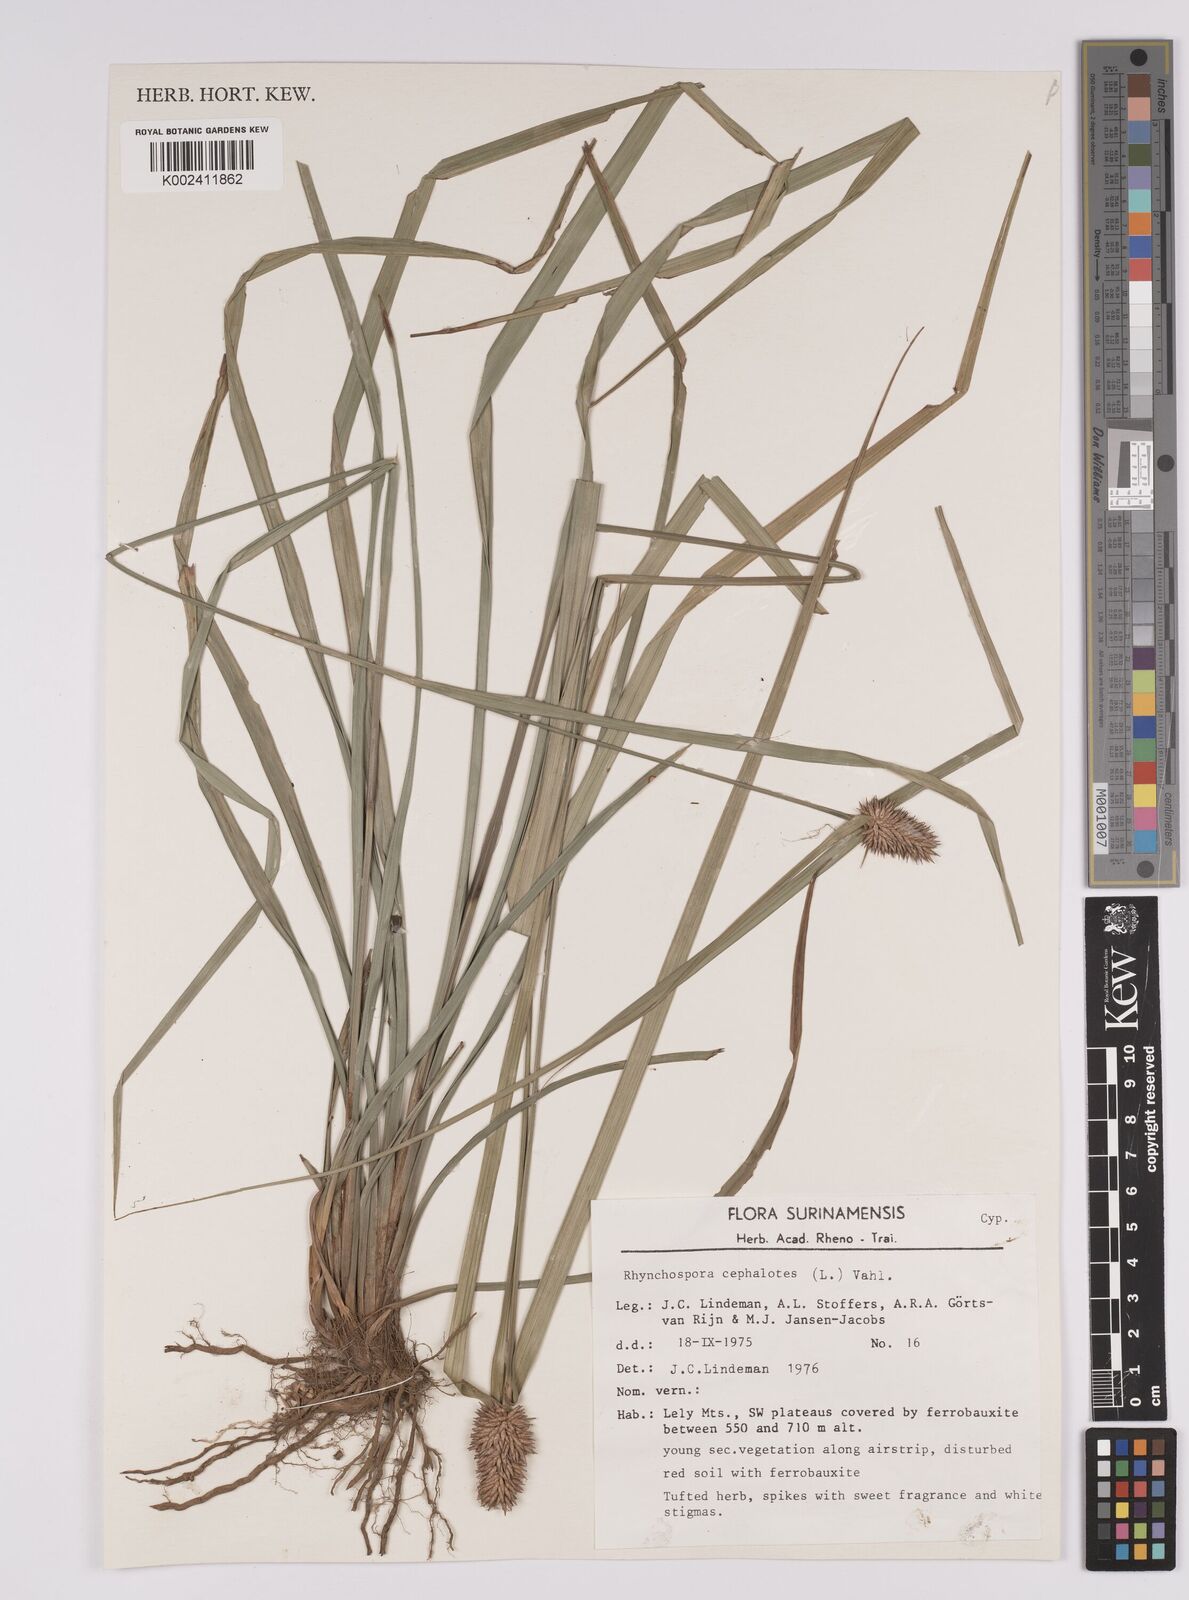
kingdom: Plantae
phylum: Tracheophyta
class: Liliopsida
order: Poales
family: Cyperaceae
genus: Rhynchospora
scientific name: Rhynchospora cephalotes
